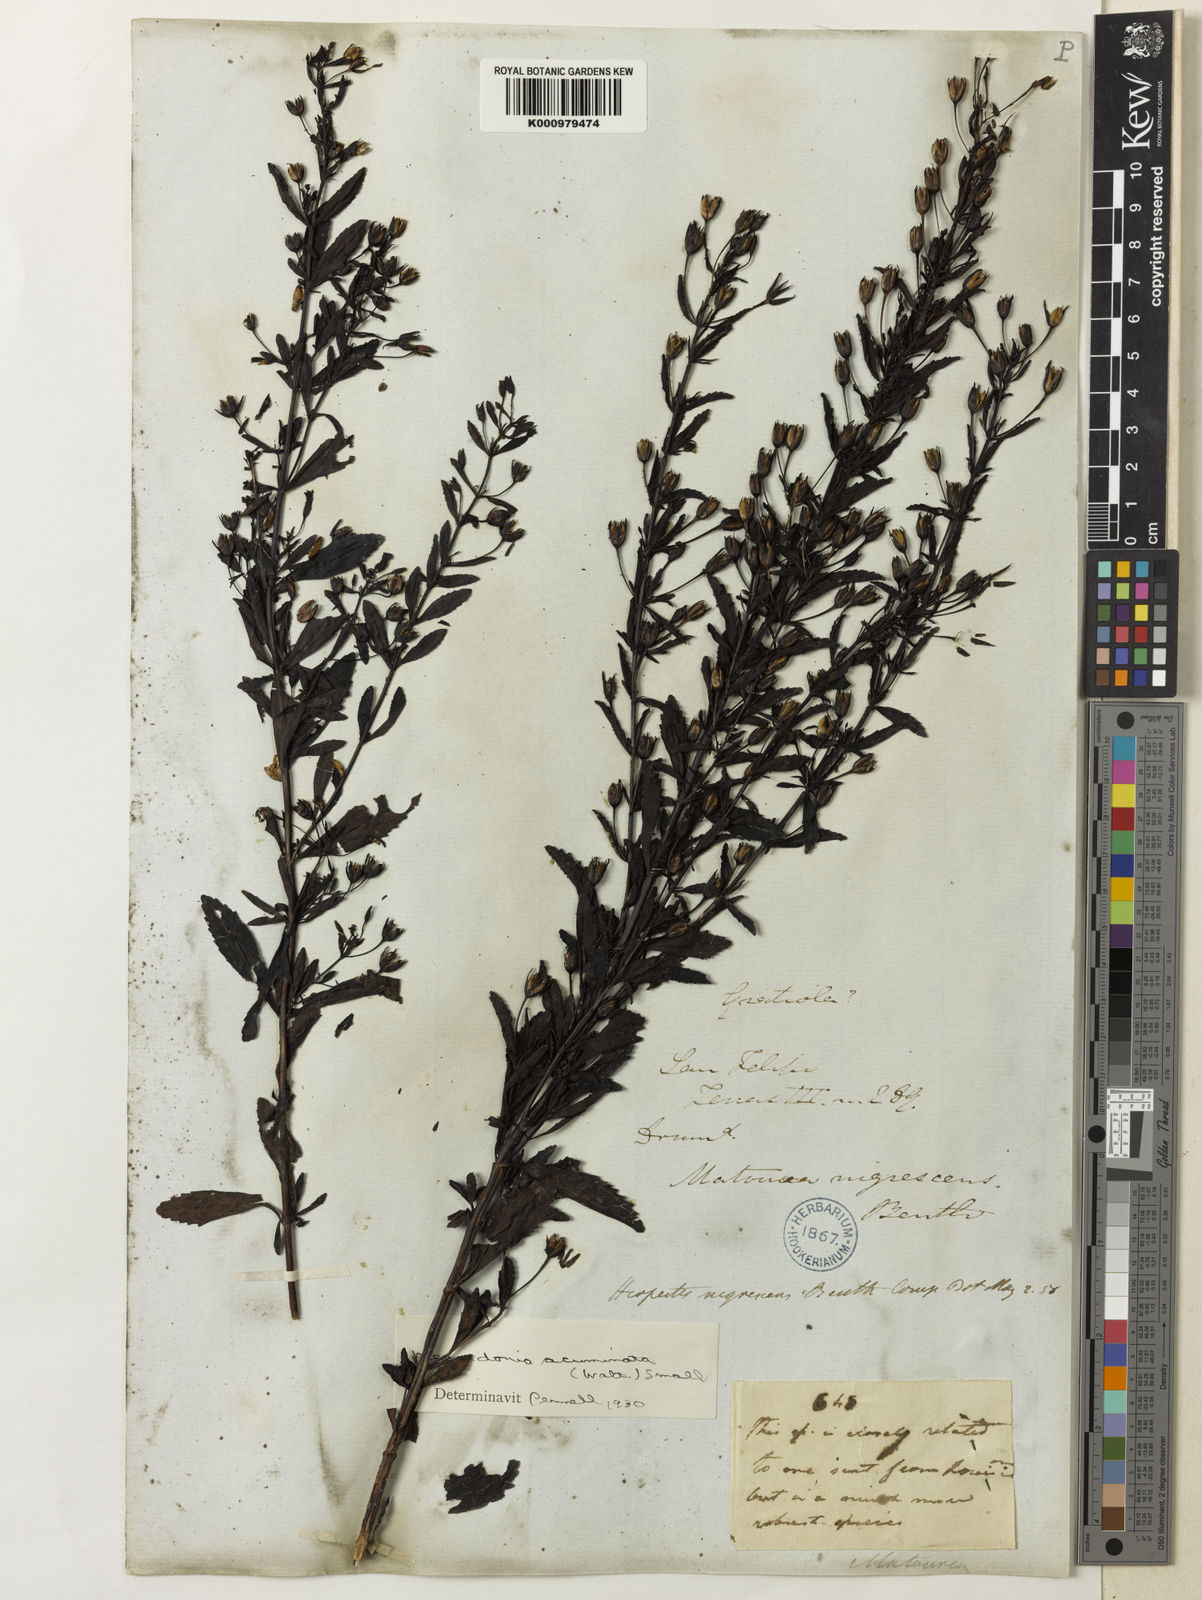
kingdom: Plantae
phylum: Tracheophyta
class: Magnoliopsida
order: Lamiales
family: Plantaginaceae
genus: Mecardonia
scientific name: Mecardonia
